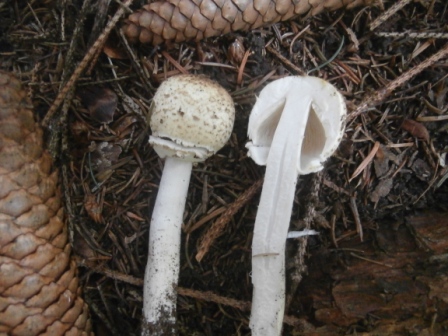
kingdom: Fungi
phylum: Basidiomycota
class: Agaricomycetes
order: Agaricales
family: Agaricaceae
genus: Agaricus
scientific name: Agaricus augustus
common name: prægtig champignon
